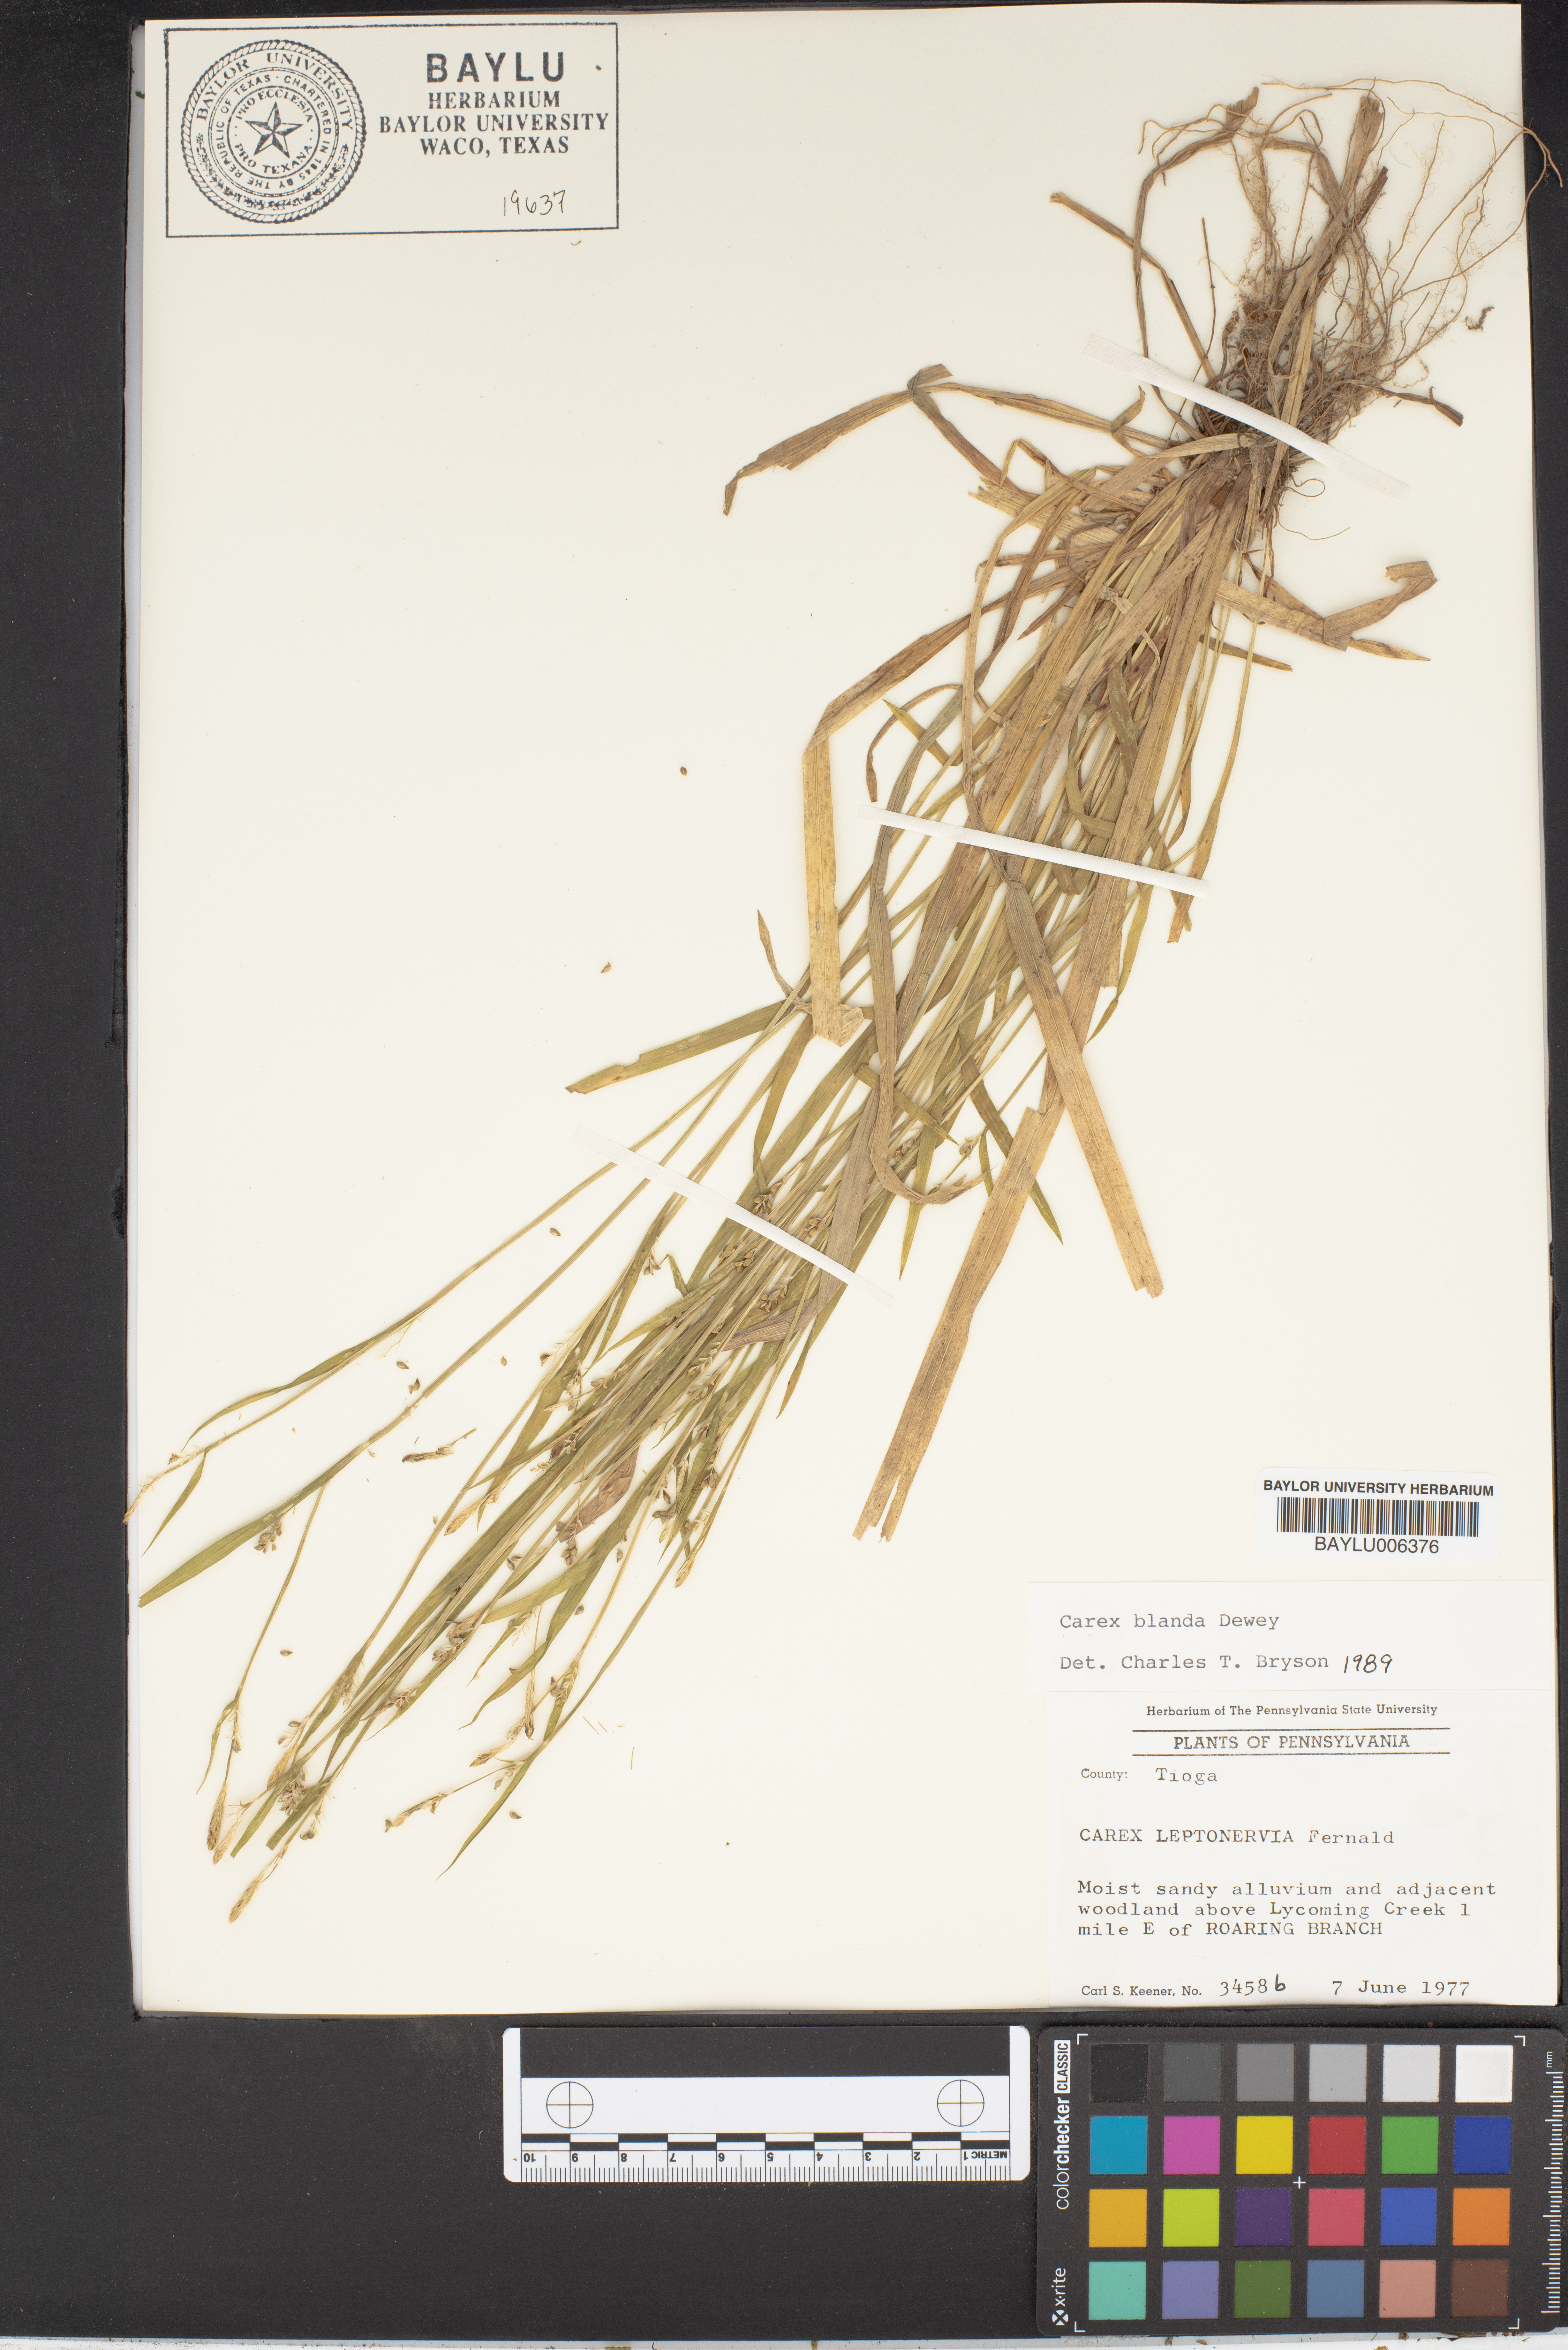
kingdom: Plantae
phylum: Tracheophyta
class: Liliopsida
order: Poales
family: Cyperaceae
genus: Carex
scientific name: Carex blanda
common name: Bland sedge
